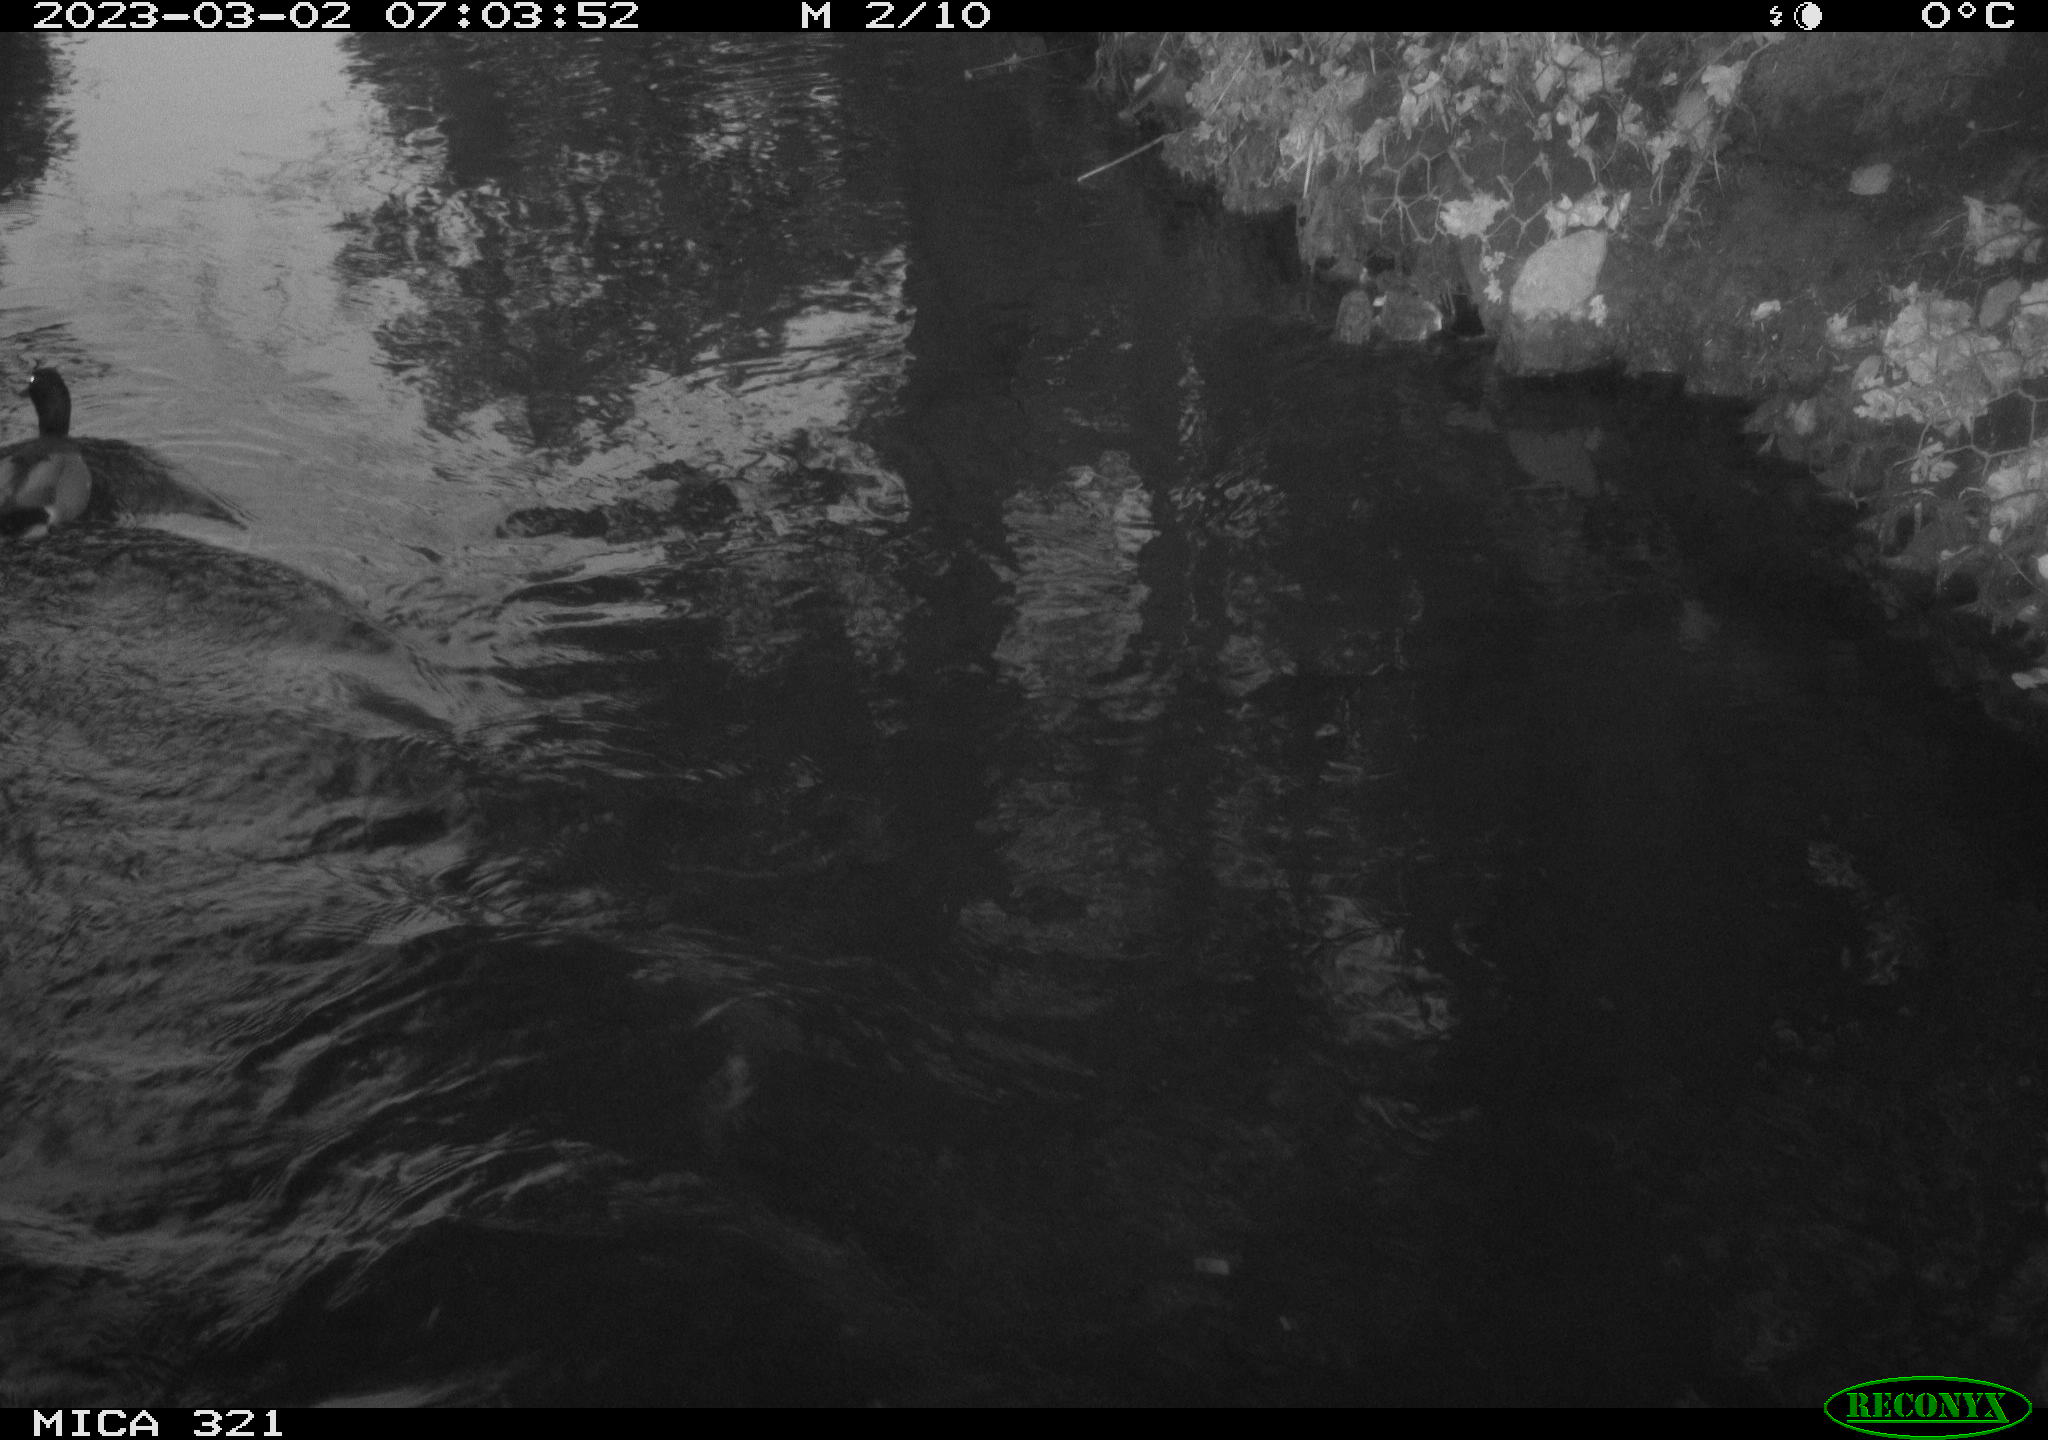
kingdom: Animalia
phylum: Chordata
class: Aves
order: Anseriformes
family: Anatidae
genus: Anas
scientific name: Anas
